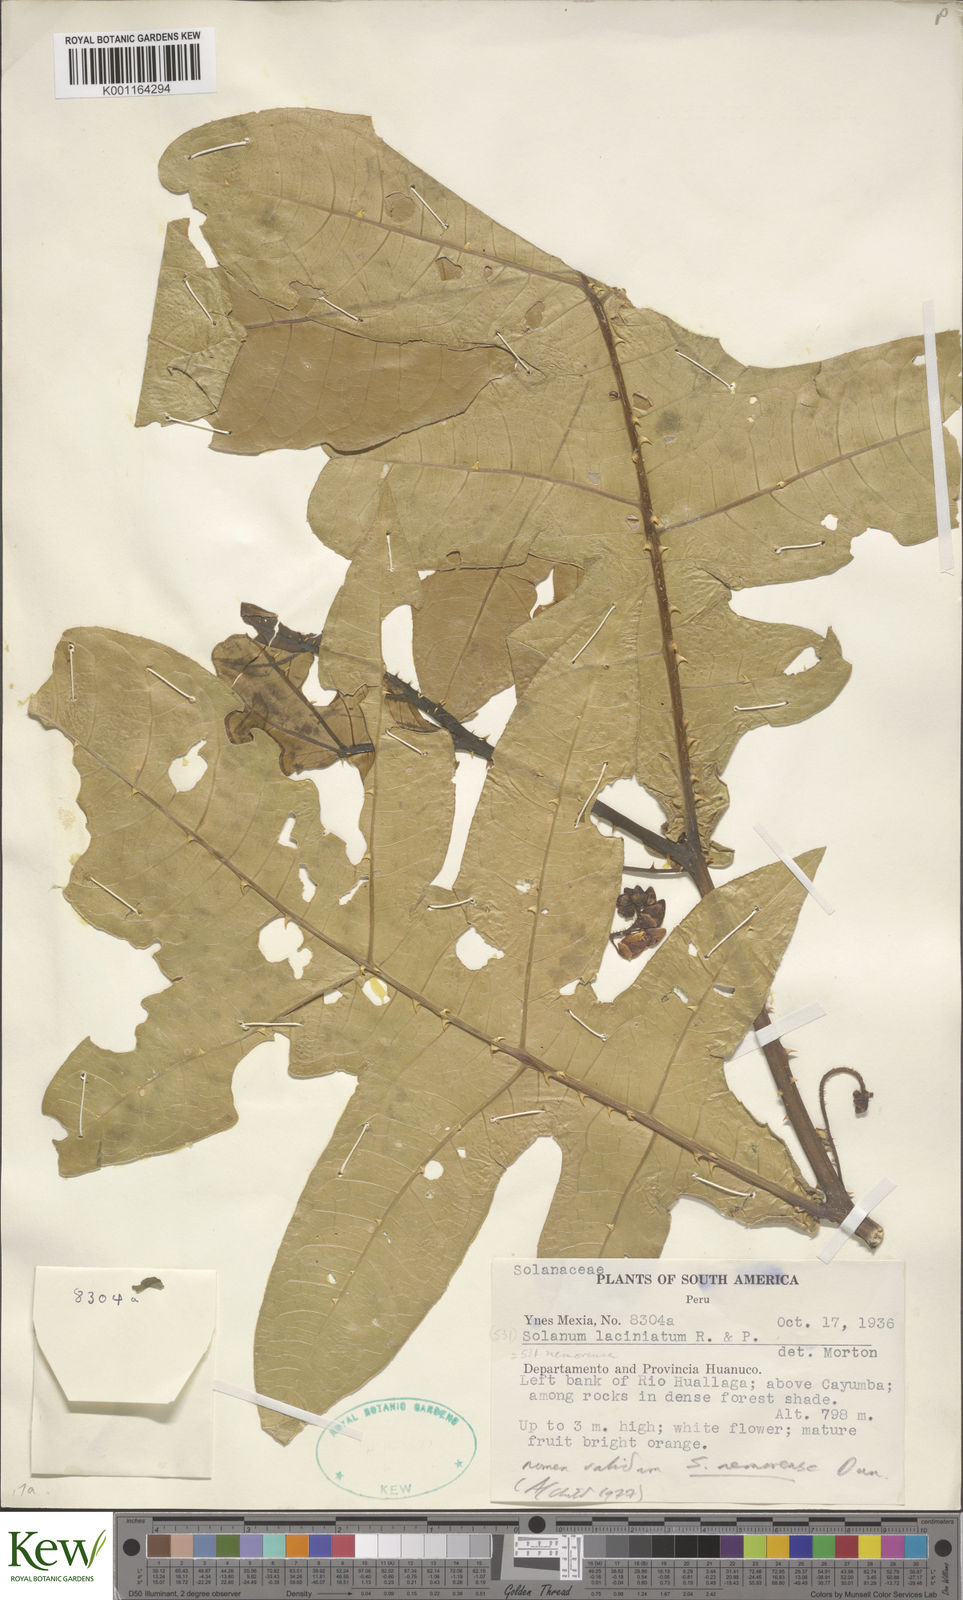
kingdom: Plantae
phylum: Tracheophyta
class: Magnoliopsida
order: Solanales
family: Solanaceae
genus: Solanum
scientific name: Solanum laciniatum
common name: Kangaroo-apple
